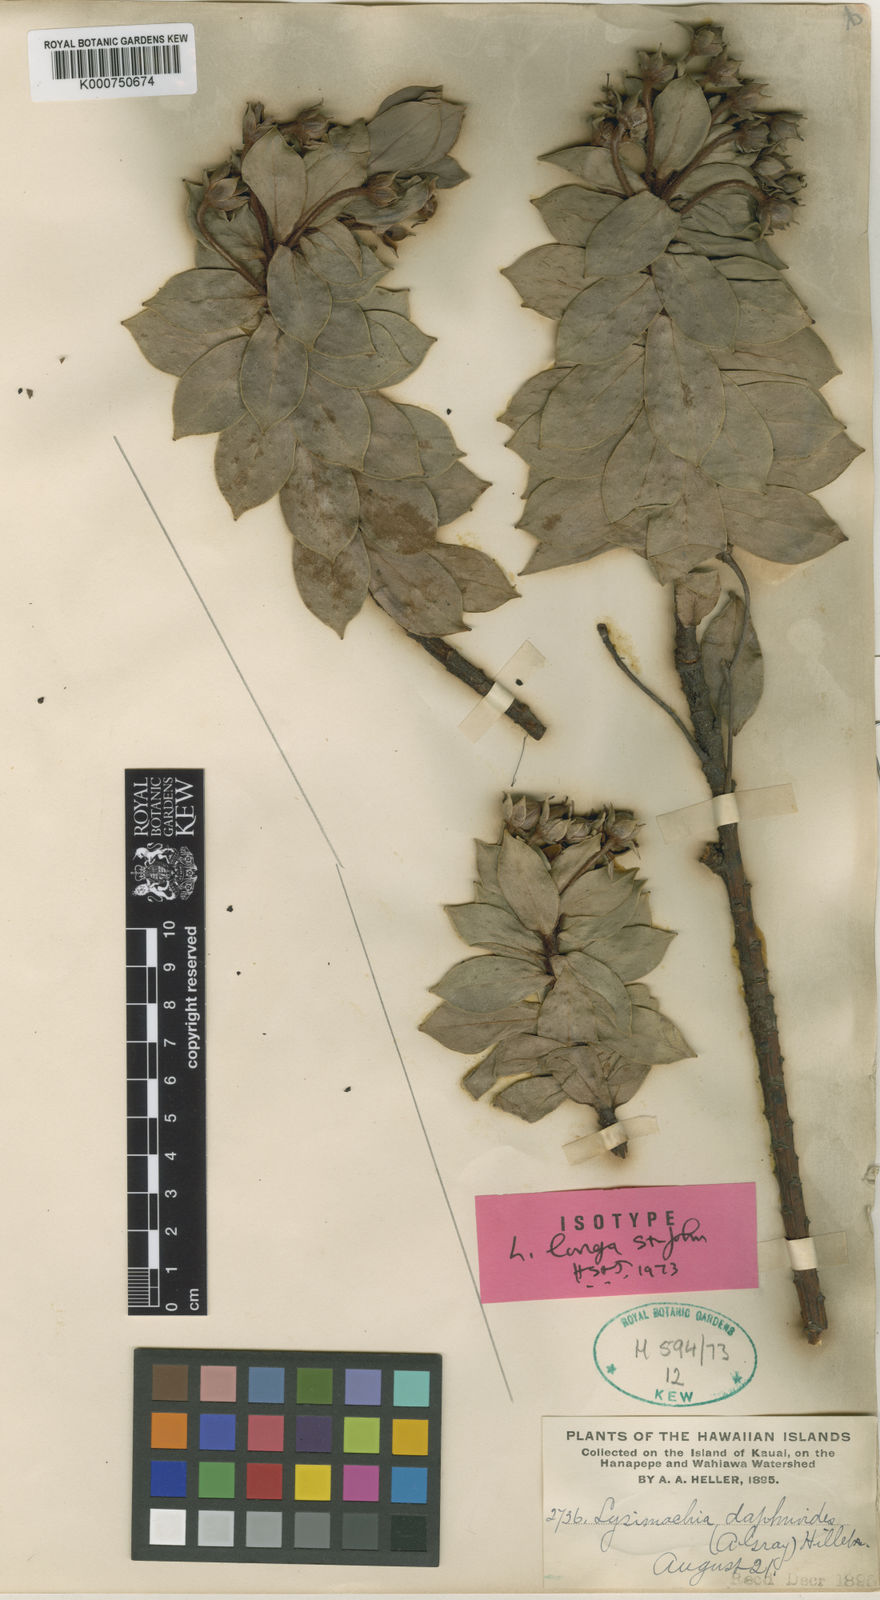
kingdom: Plantae
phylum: Tracheophyta
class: Magnoliopsida
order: Ericales
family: Primulaceae
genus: Lysimachia
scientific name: Lysimachia daphnoides
